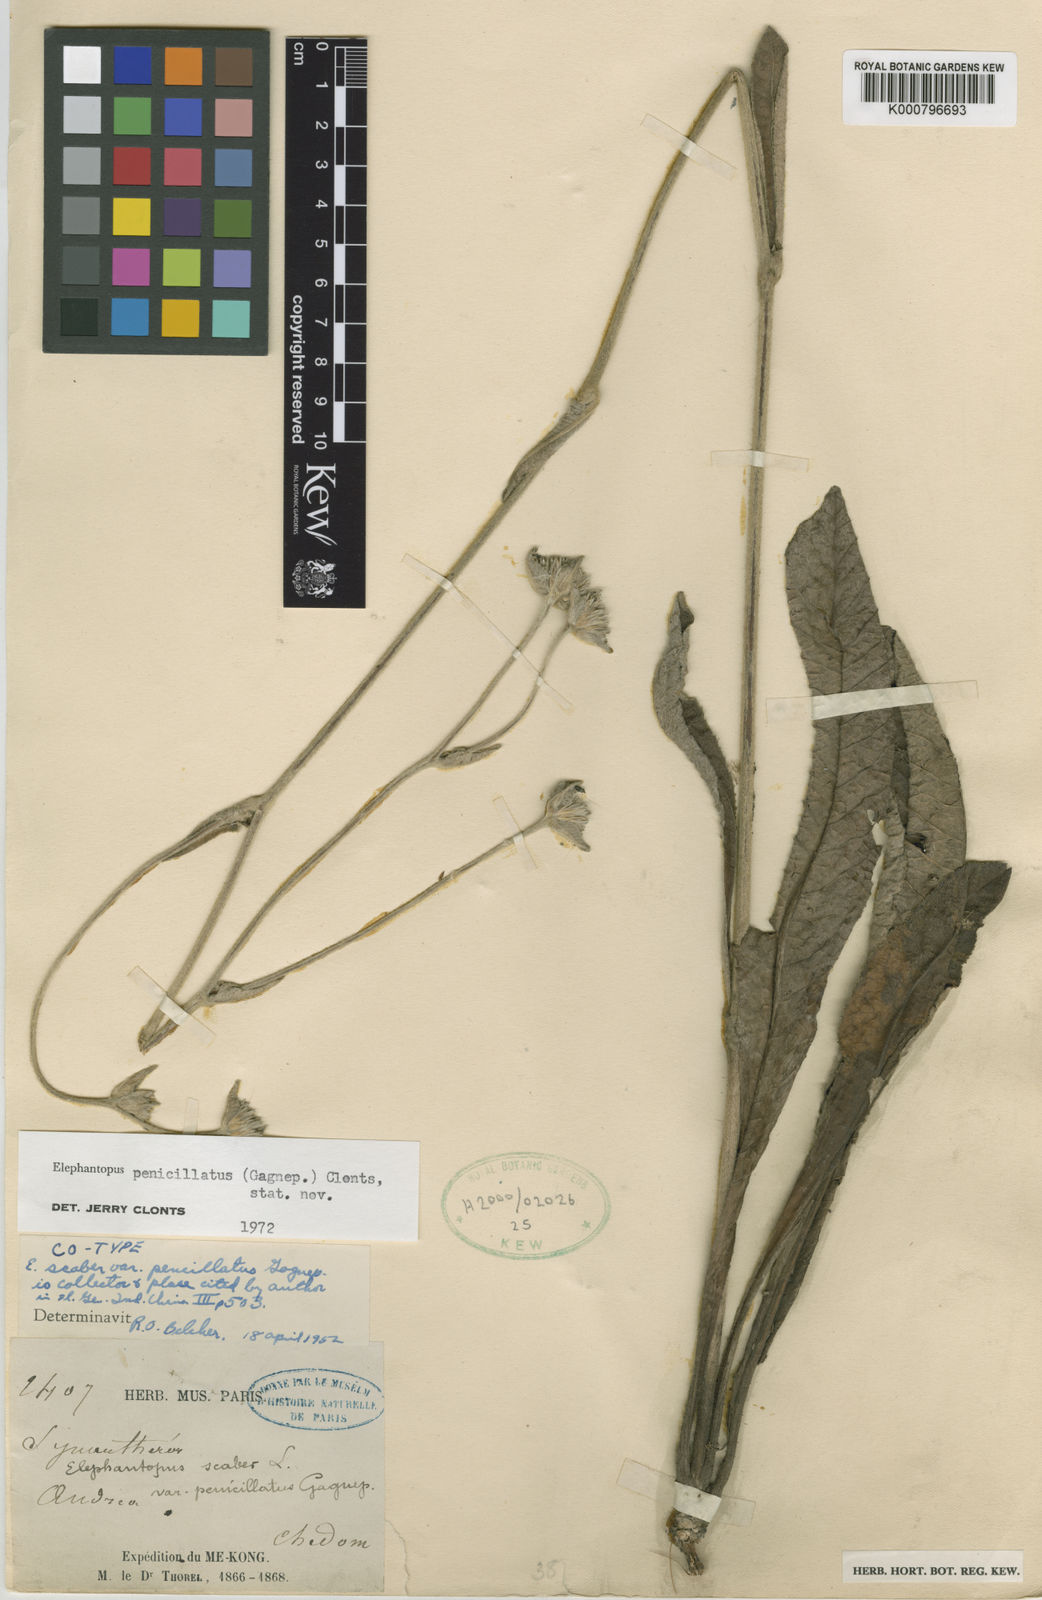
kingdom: Plantae
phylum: Tracheophyta
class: Magnoliopsida
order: Asterales
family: Asteraceae
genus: Elephantopus
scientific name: Elephantopus
